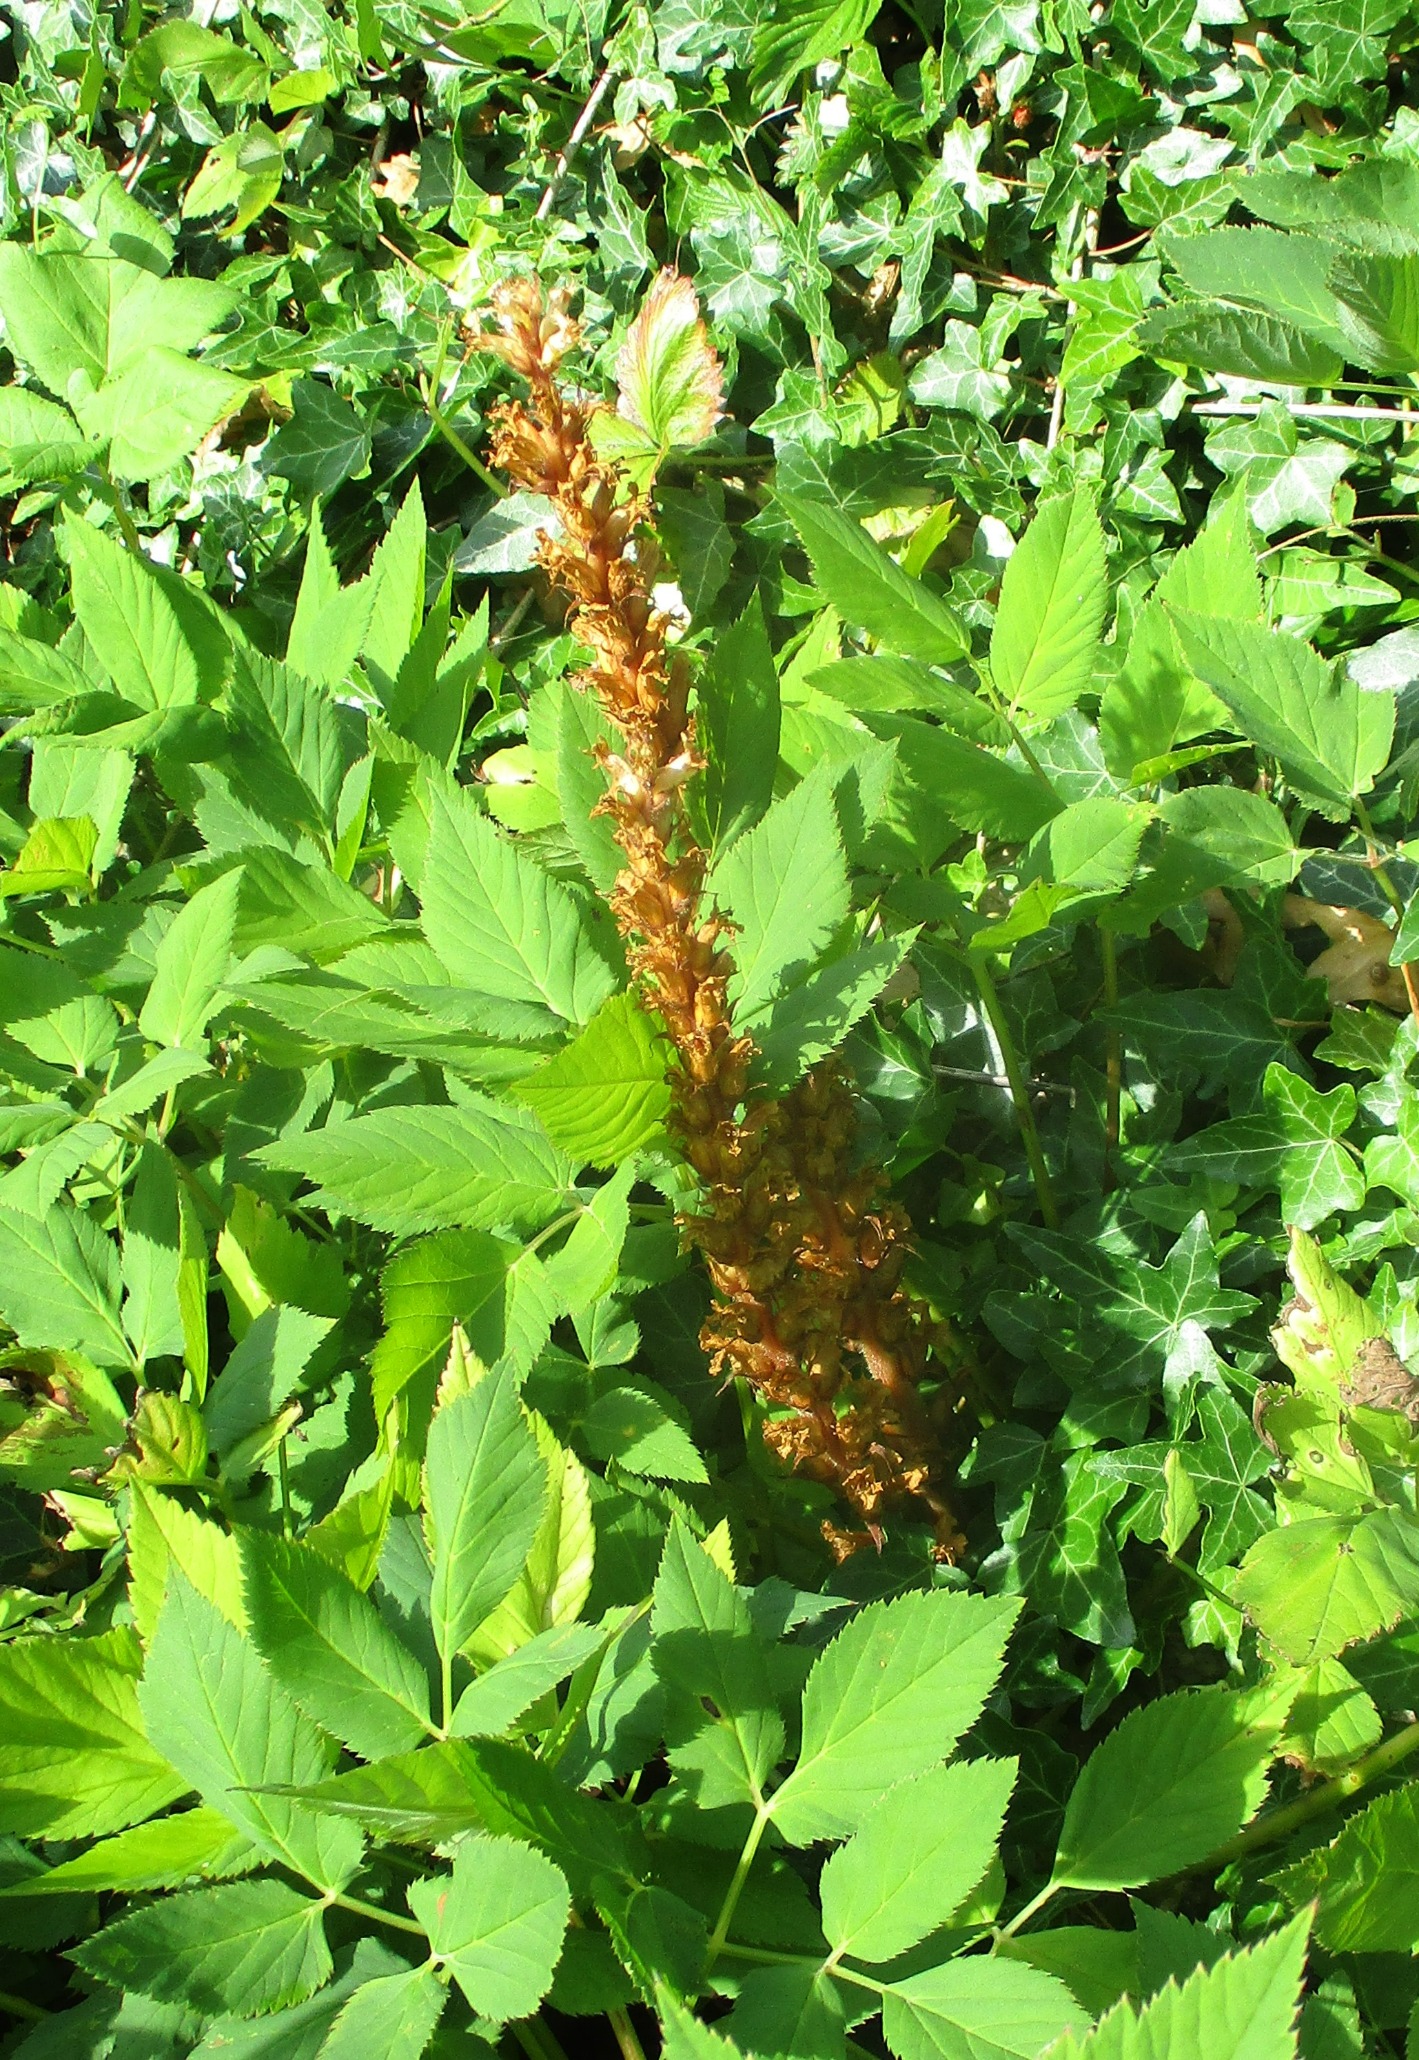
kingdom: Plantae
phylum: Tracheophyta
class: Magnoliopsida
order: Lamiales
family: Orobanchaceae
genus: Orobanche
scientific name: Orobanche hederae
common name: Vedbend-gyvelkvæler
